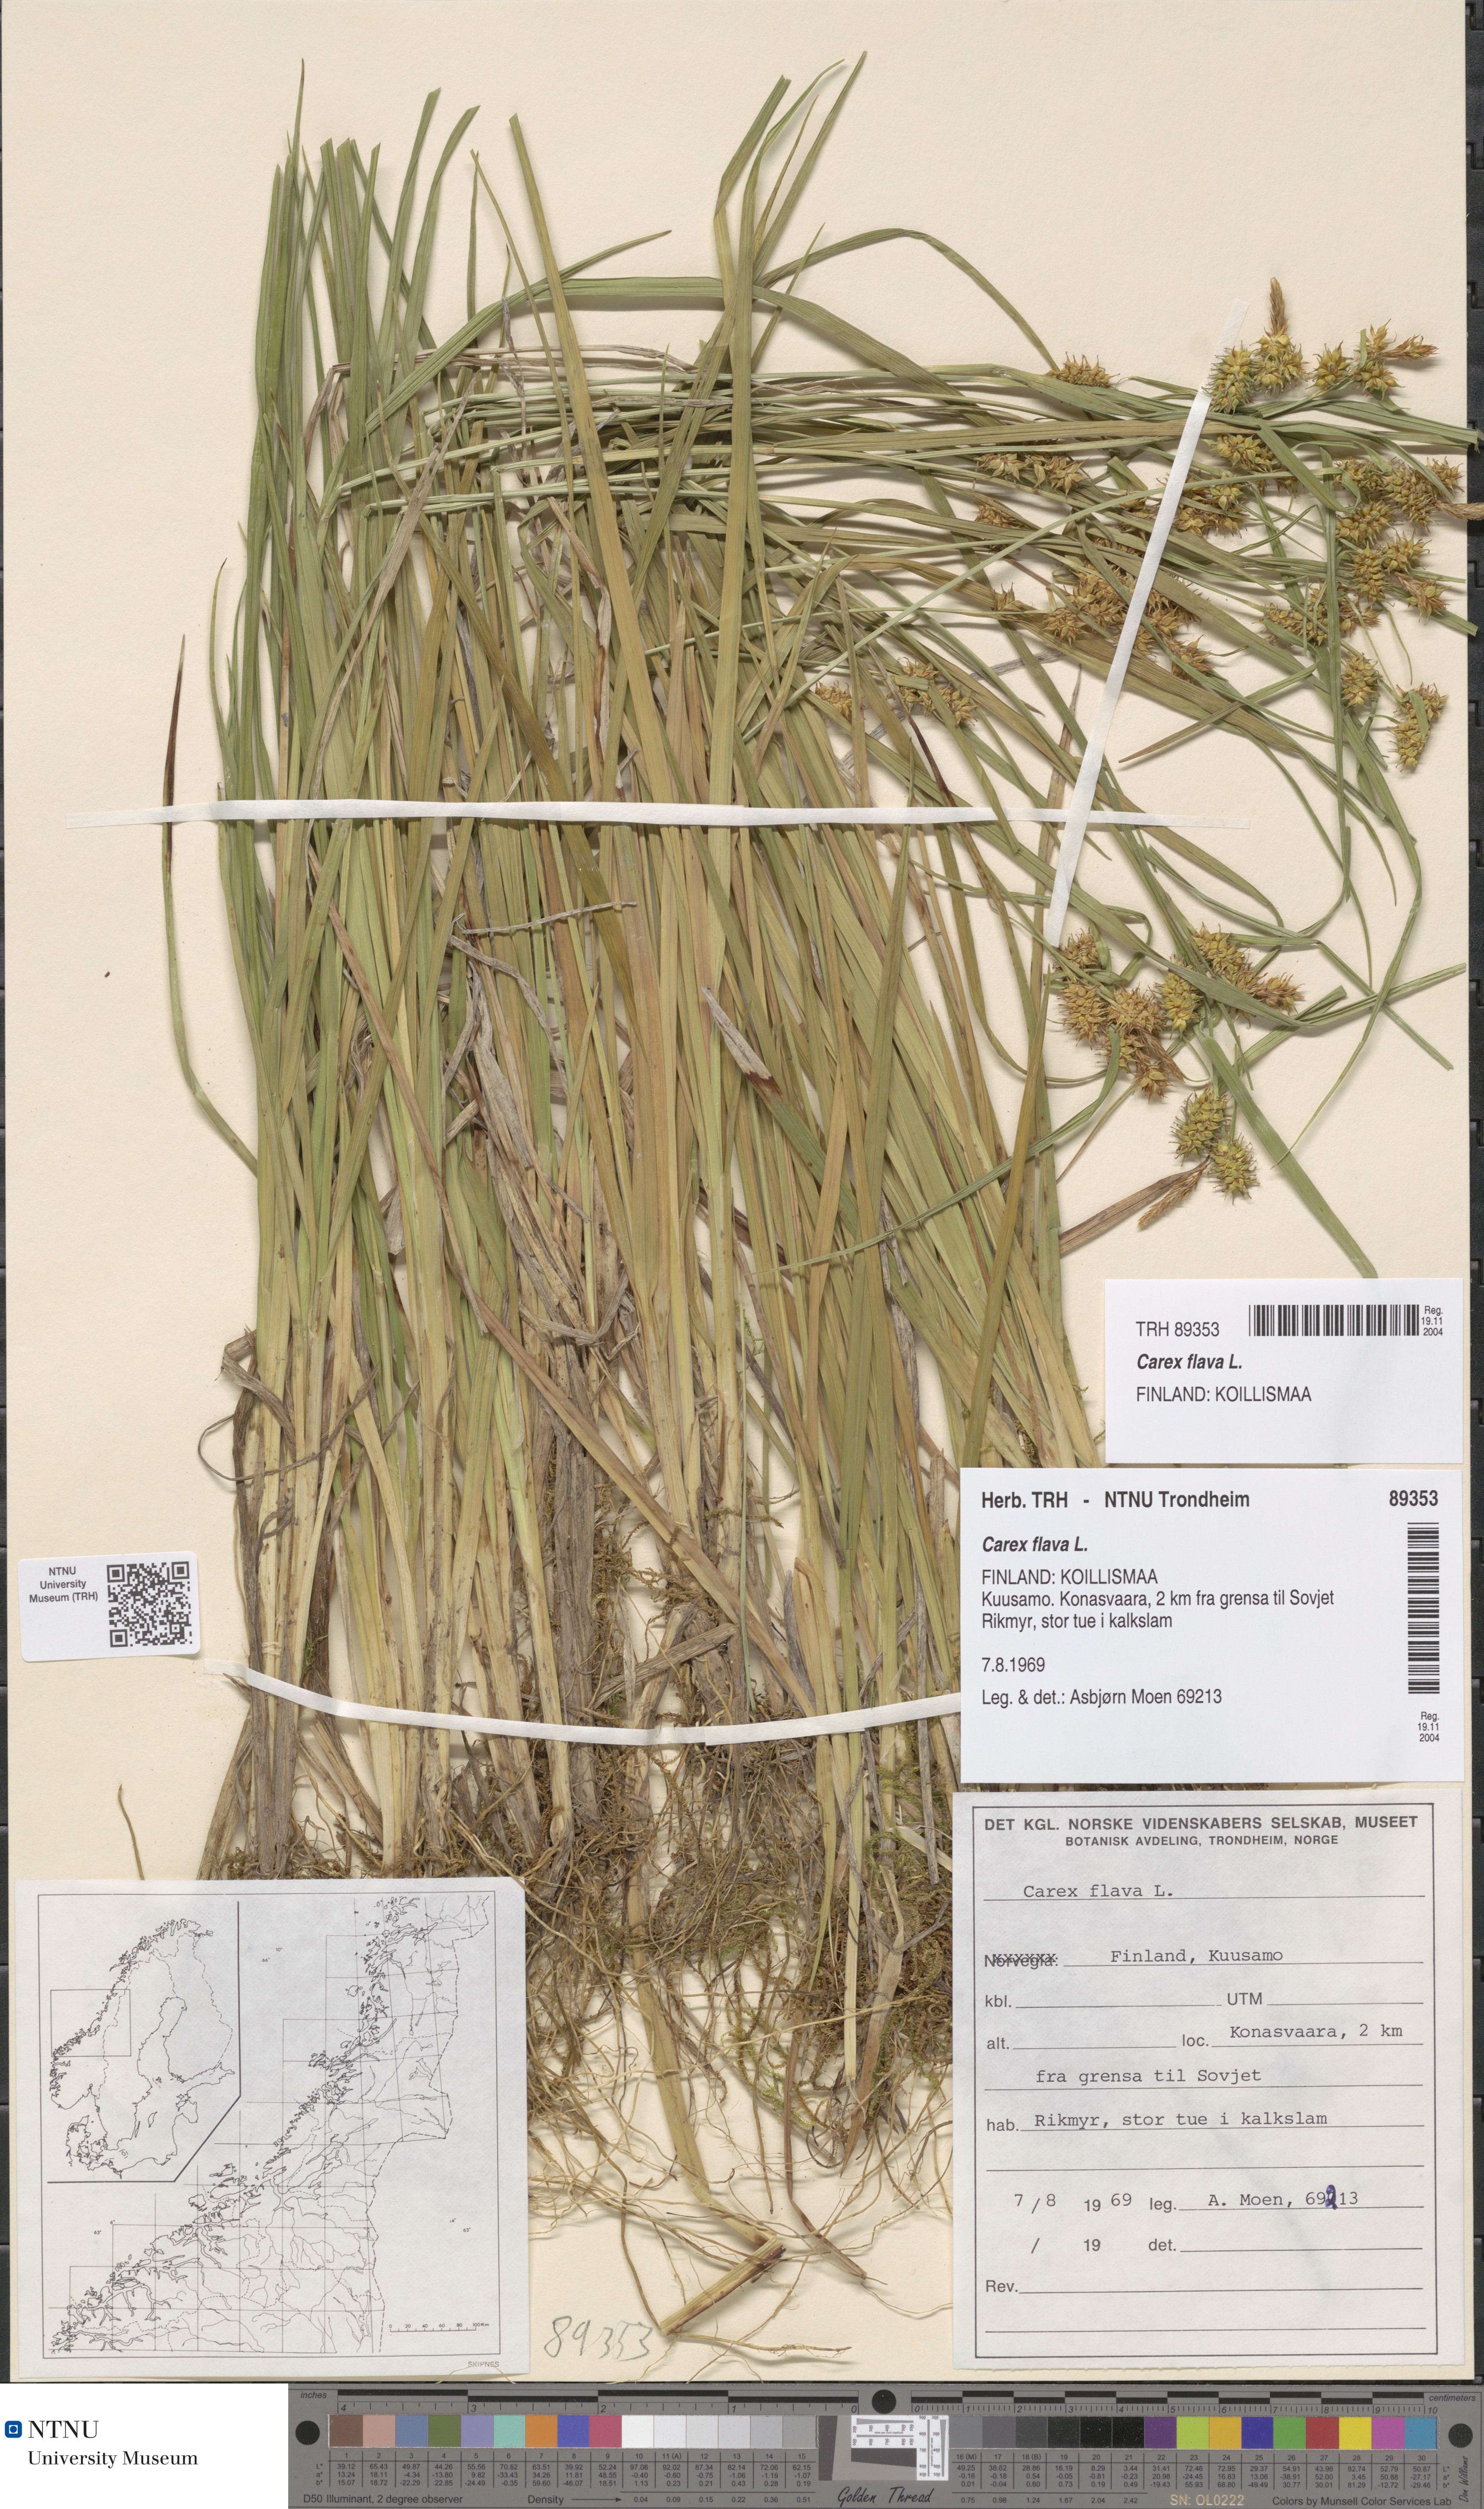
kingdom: Plantae
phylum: Tracheophyta
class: Liliopsida
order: Poales
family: Cyperaceae
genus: Carex
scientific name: Carex flava
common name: Large yellow-sedge
